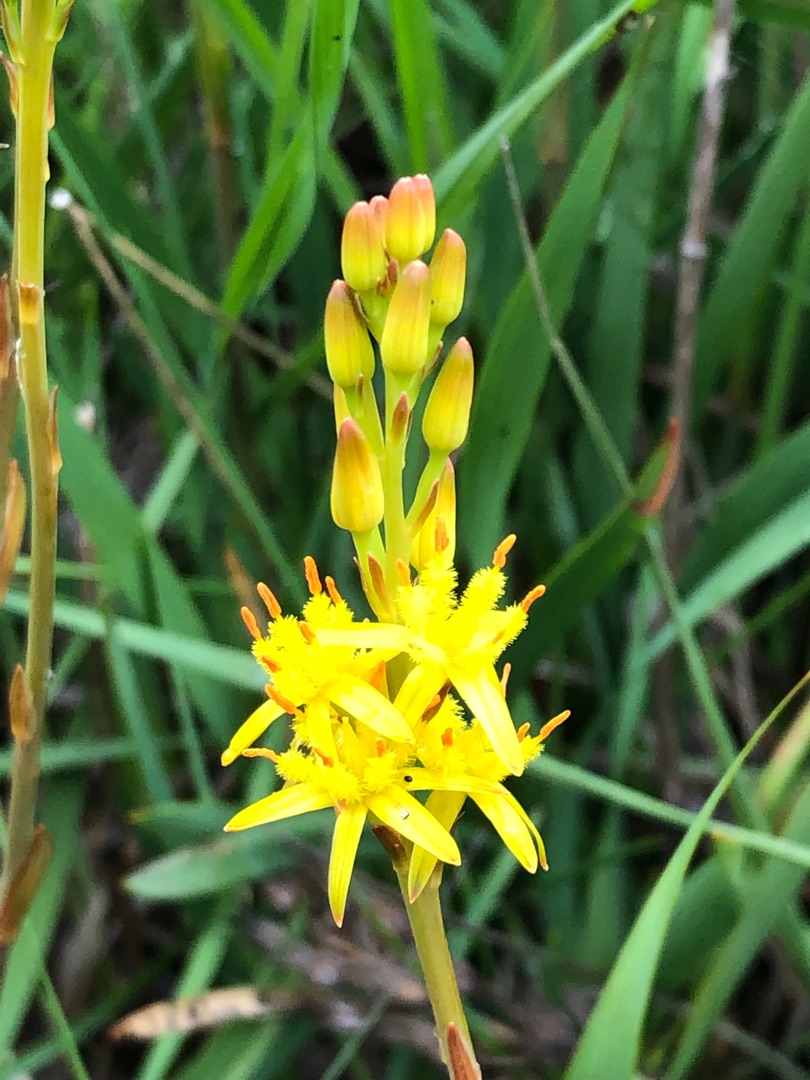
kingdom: Plantae
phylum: Tracheophyta
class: Liliopsida
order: Dioscoreales
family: Nartheciaceae
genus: Narthecium
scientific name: Narthecium ossifragum
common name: Benbræk
